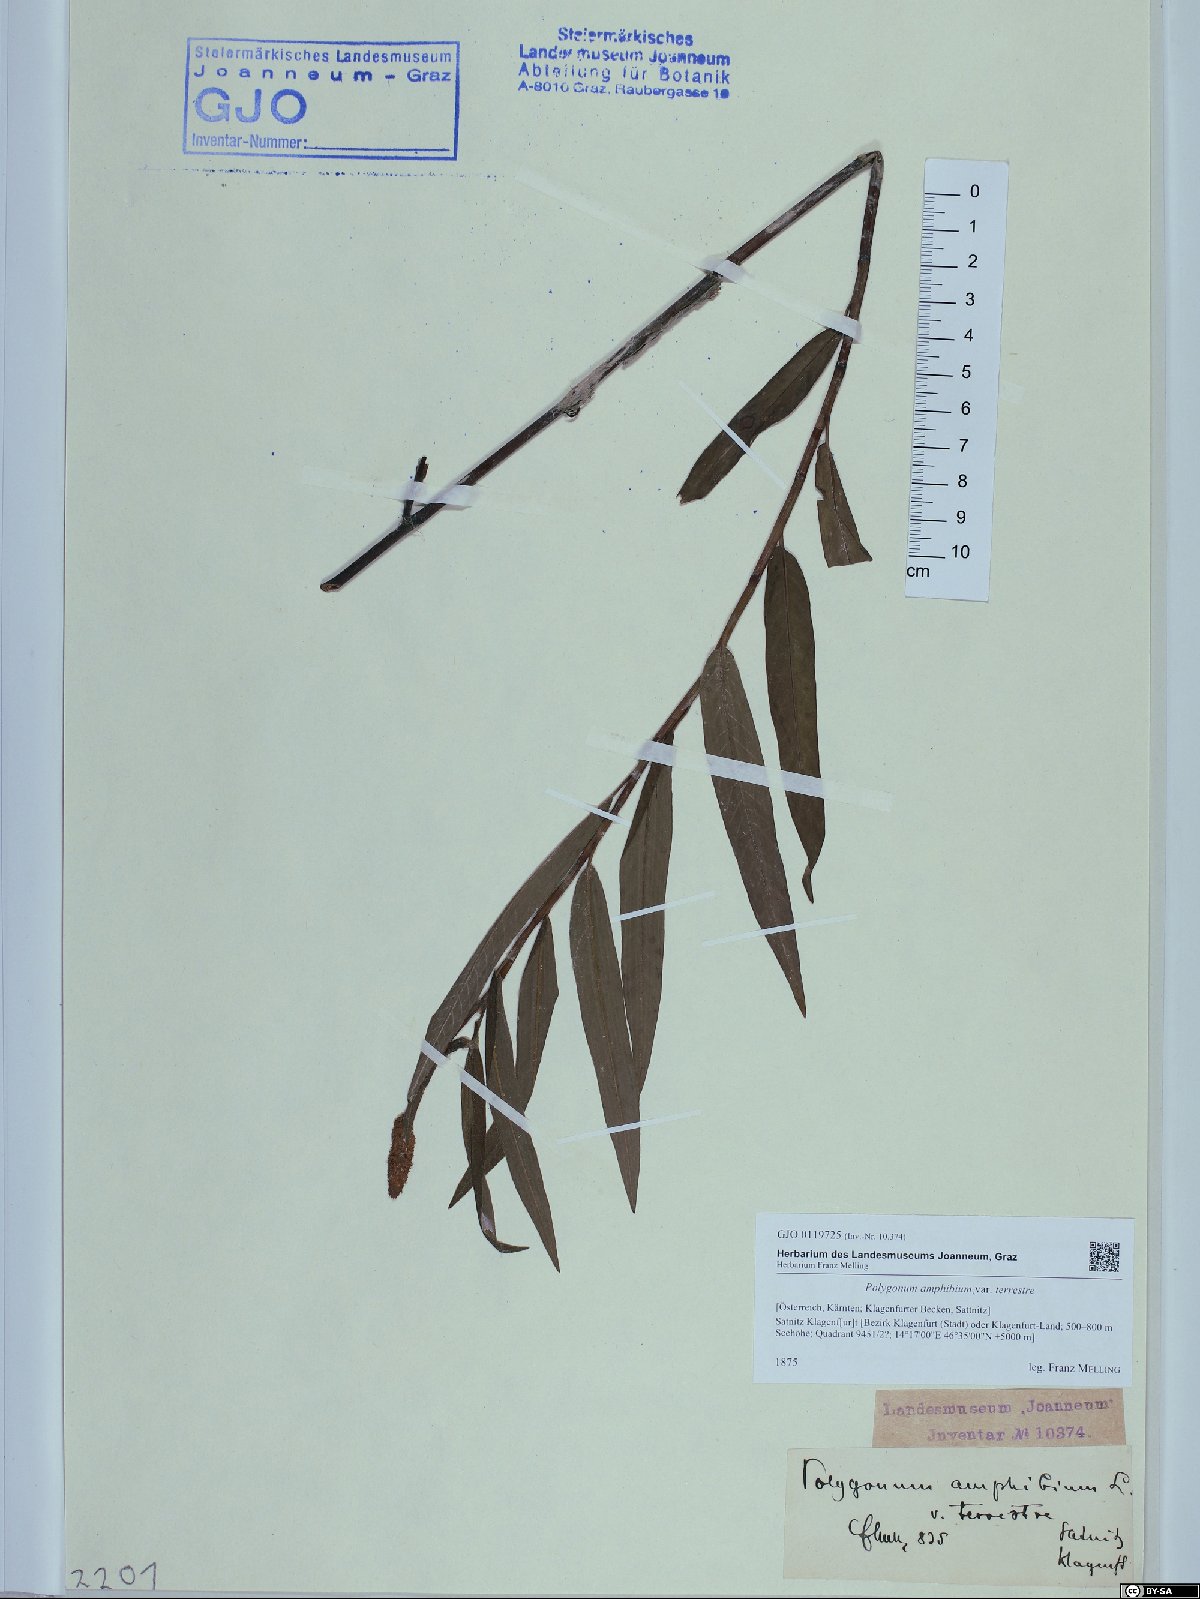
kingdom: Plantae
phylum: Tracheophyta
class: Magnoliopsida
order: Caryophyllales
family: Polygonaceae
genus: Persicaria
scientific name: Persicaria amphibia
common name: Amphibious bistort
